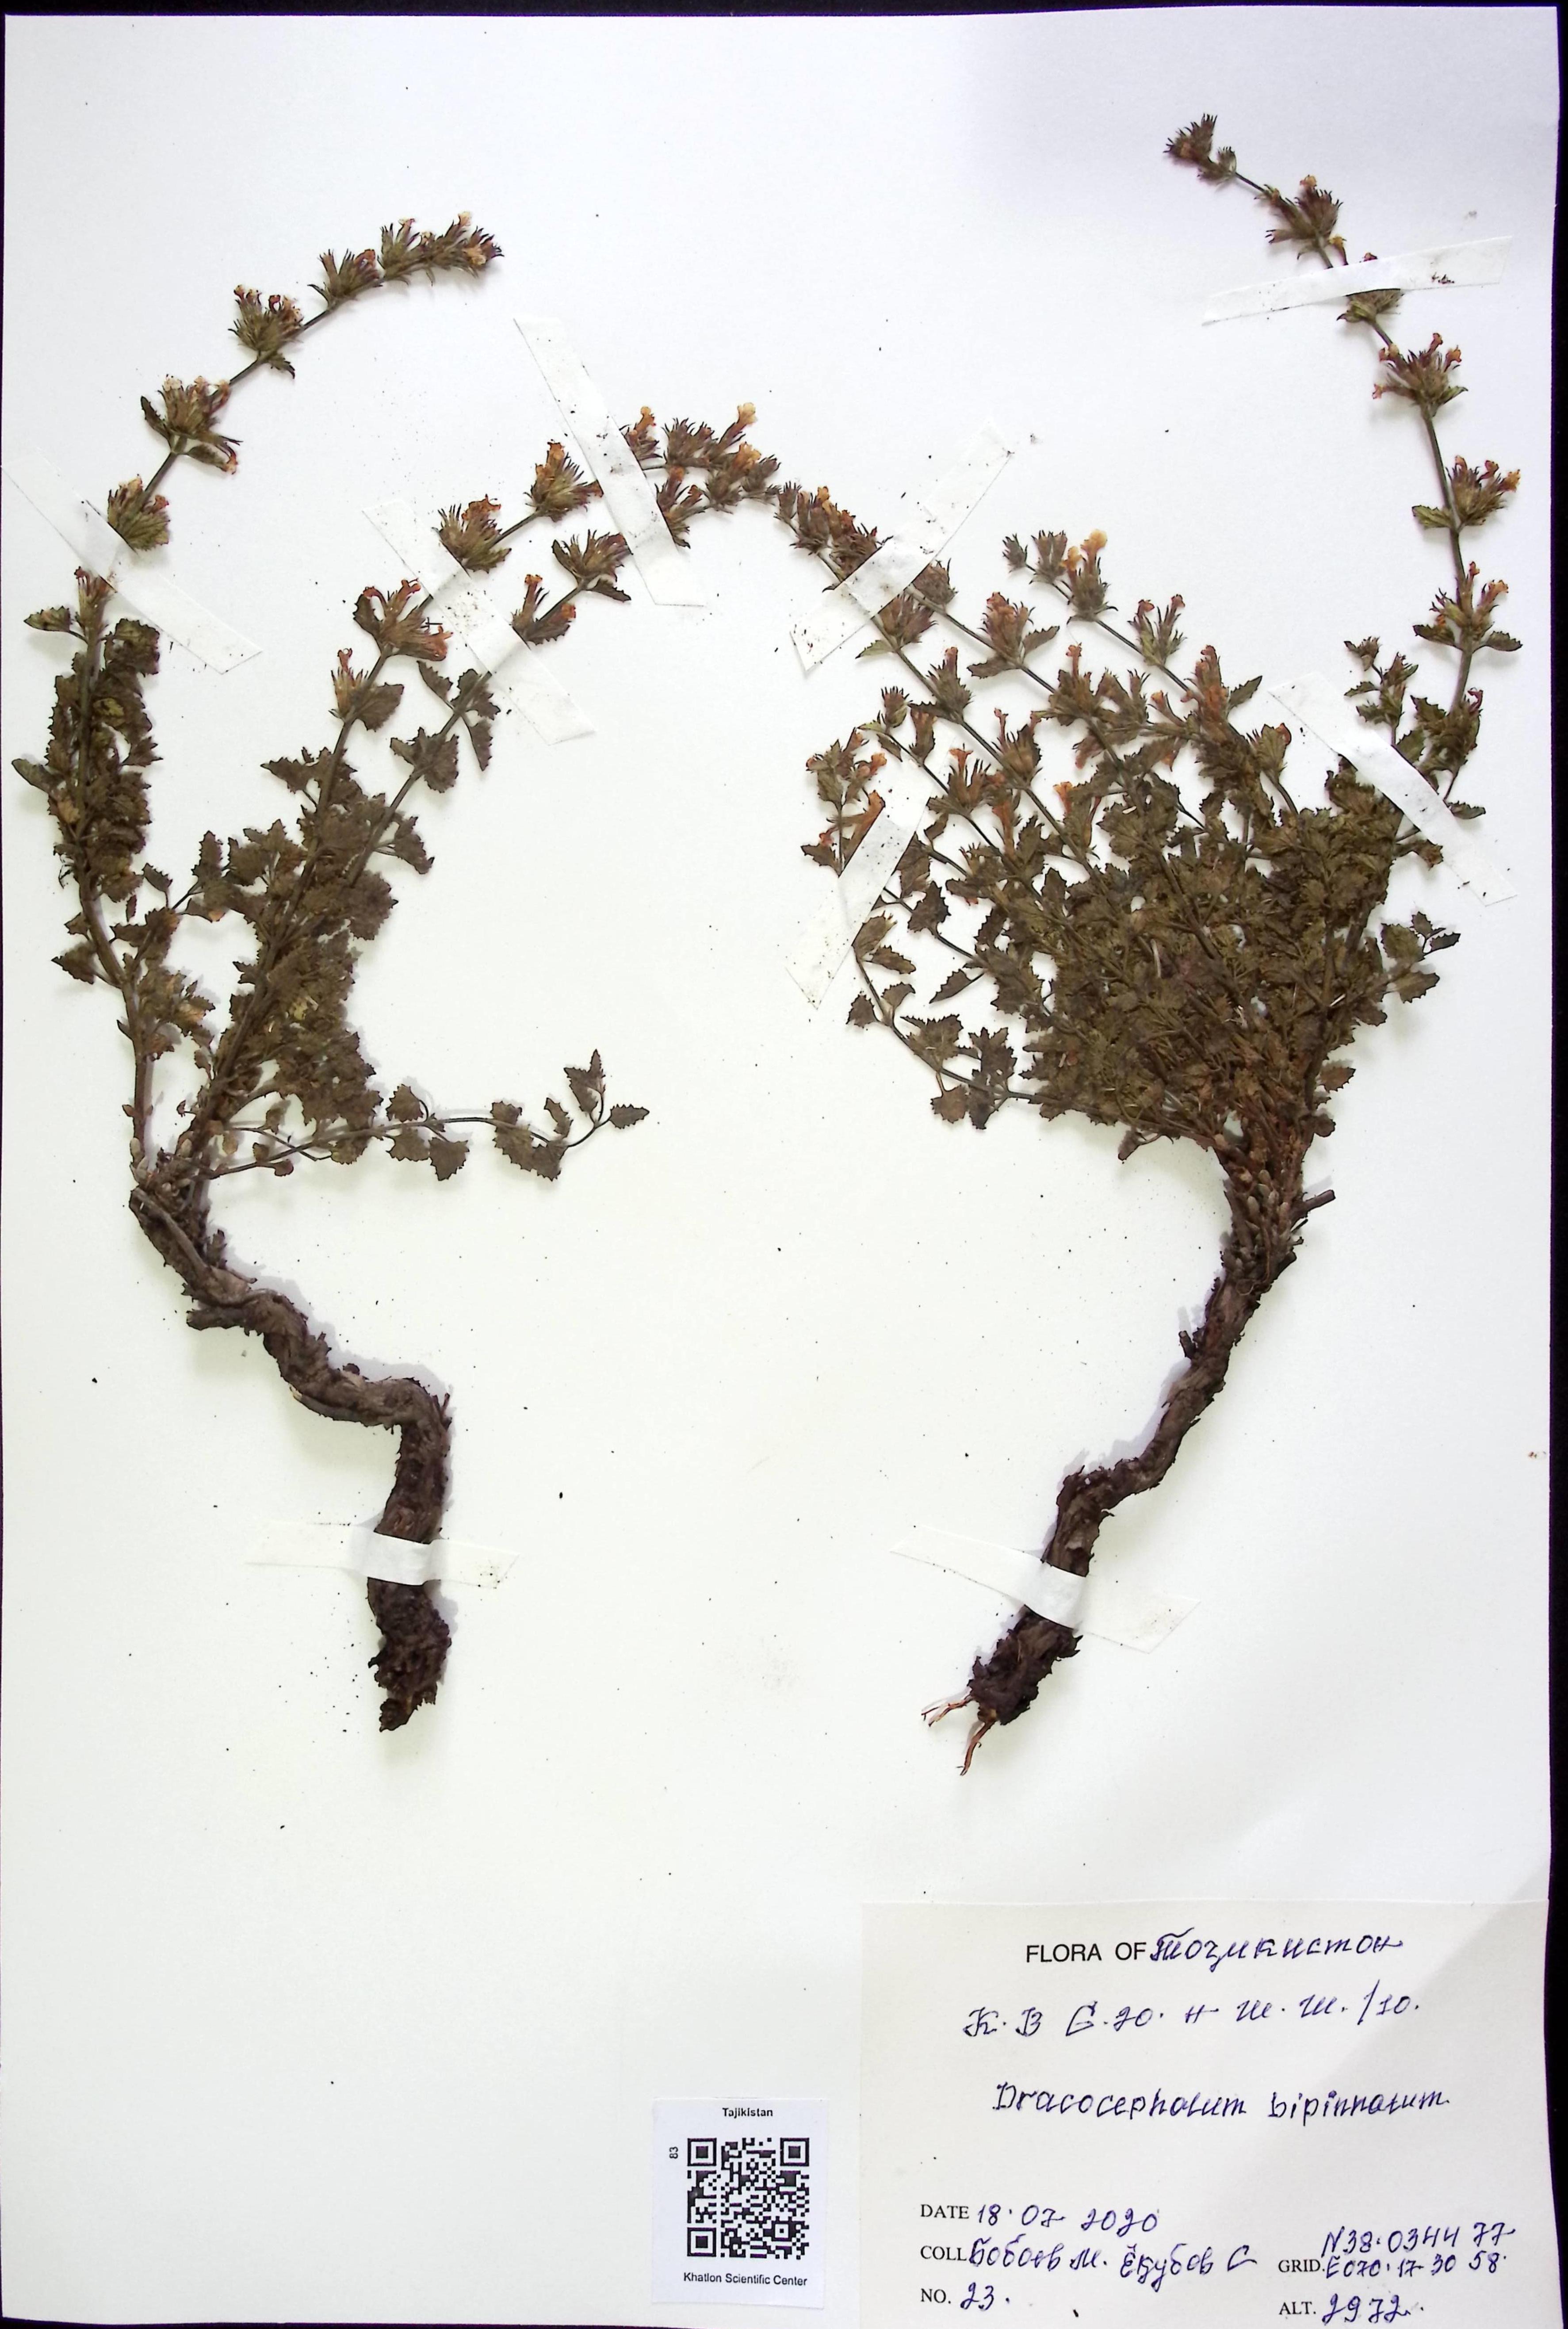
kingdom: Plantae
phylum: Tracheophyta
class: Liliopsida
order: Asparagales
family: Asparagaceae
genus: Dracaena
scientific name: Dracaena
